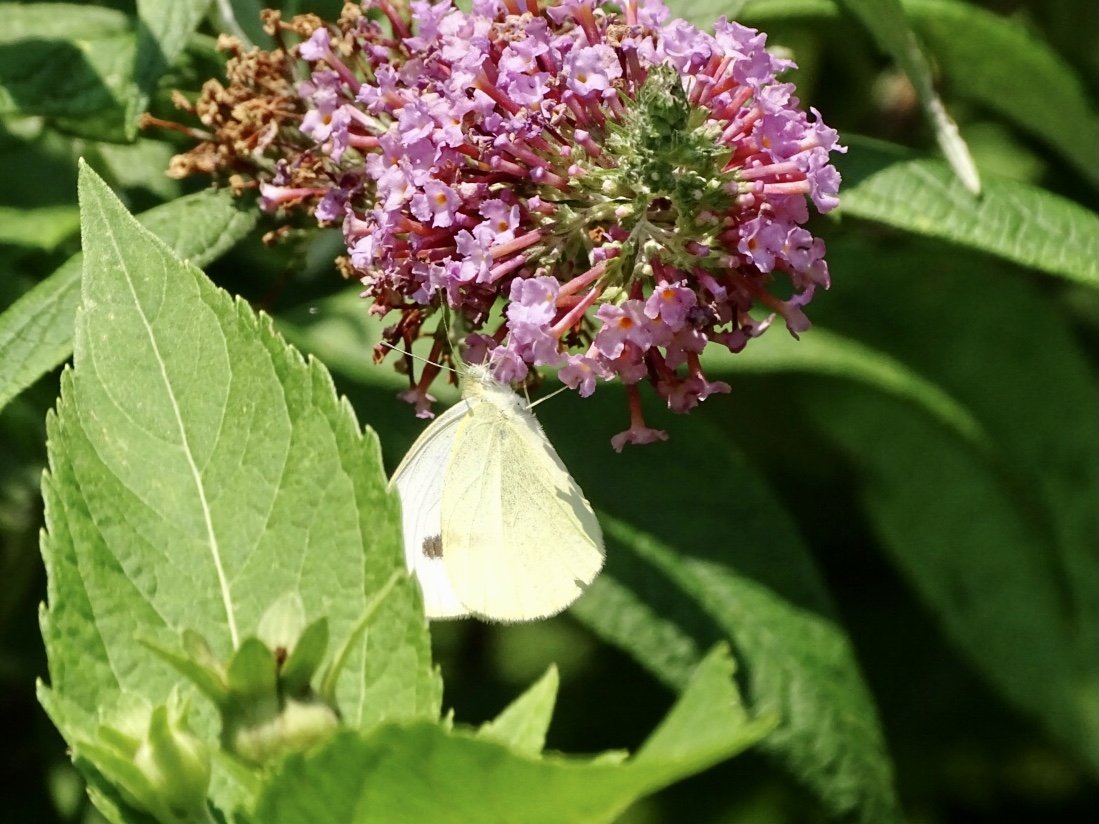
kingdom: Animalia
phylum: Arthropoda
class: Insecta
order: Lepidoptera
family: Pieridae
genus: Pieris
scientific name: Pieris rapae
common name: Cabbage White
